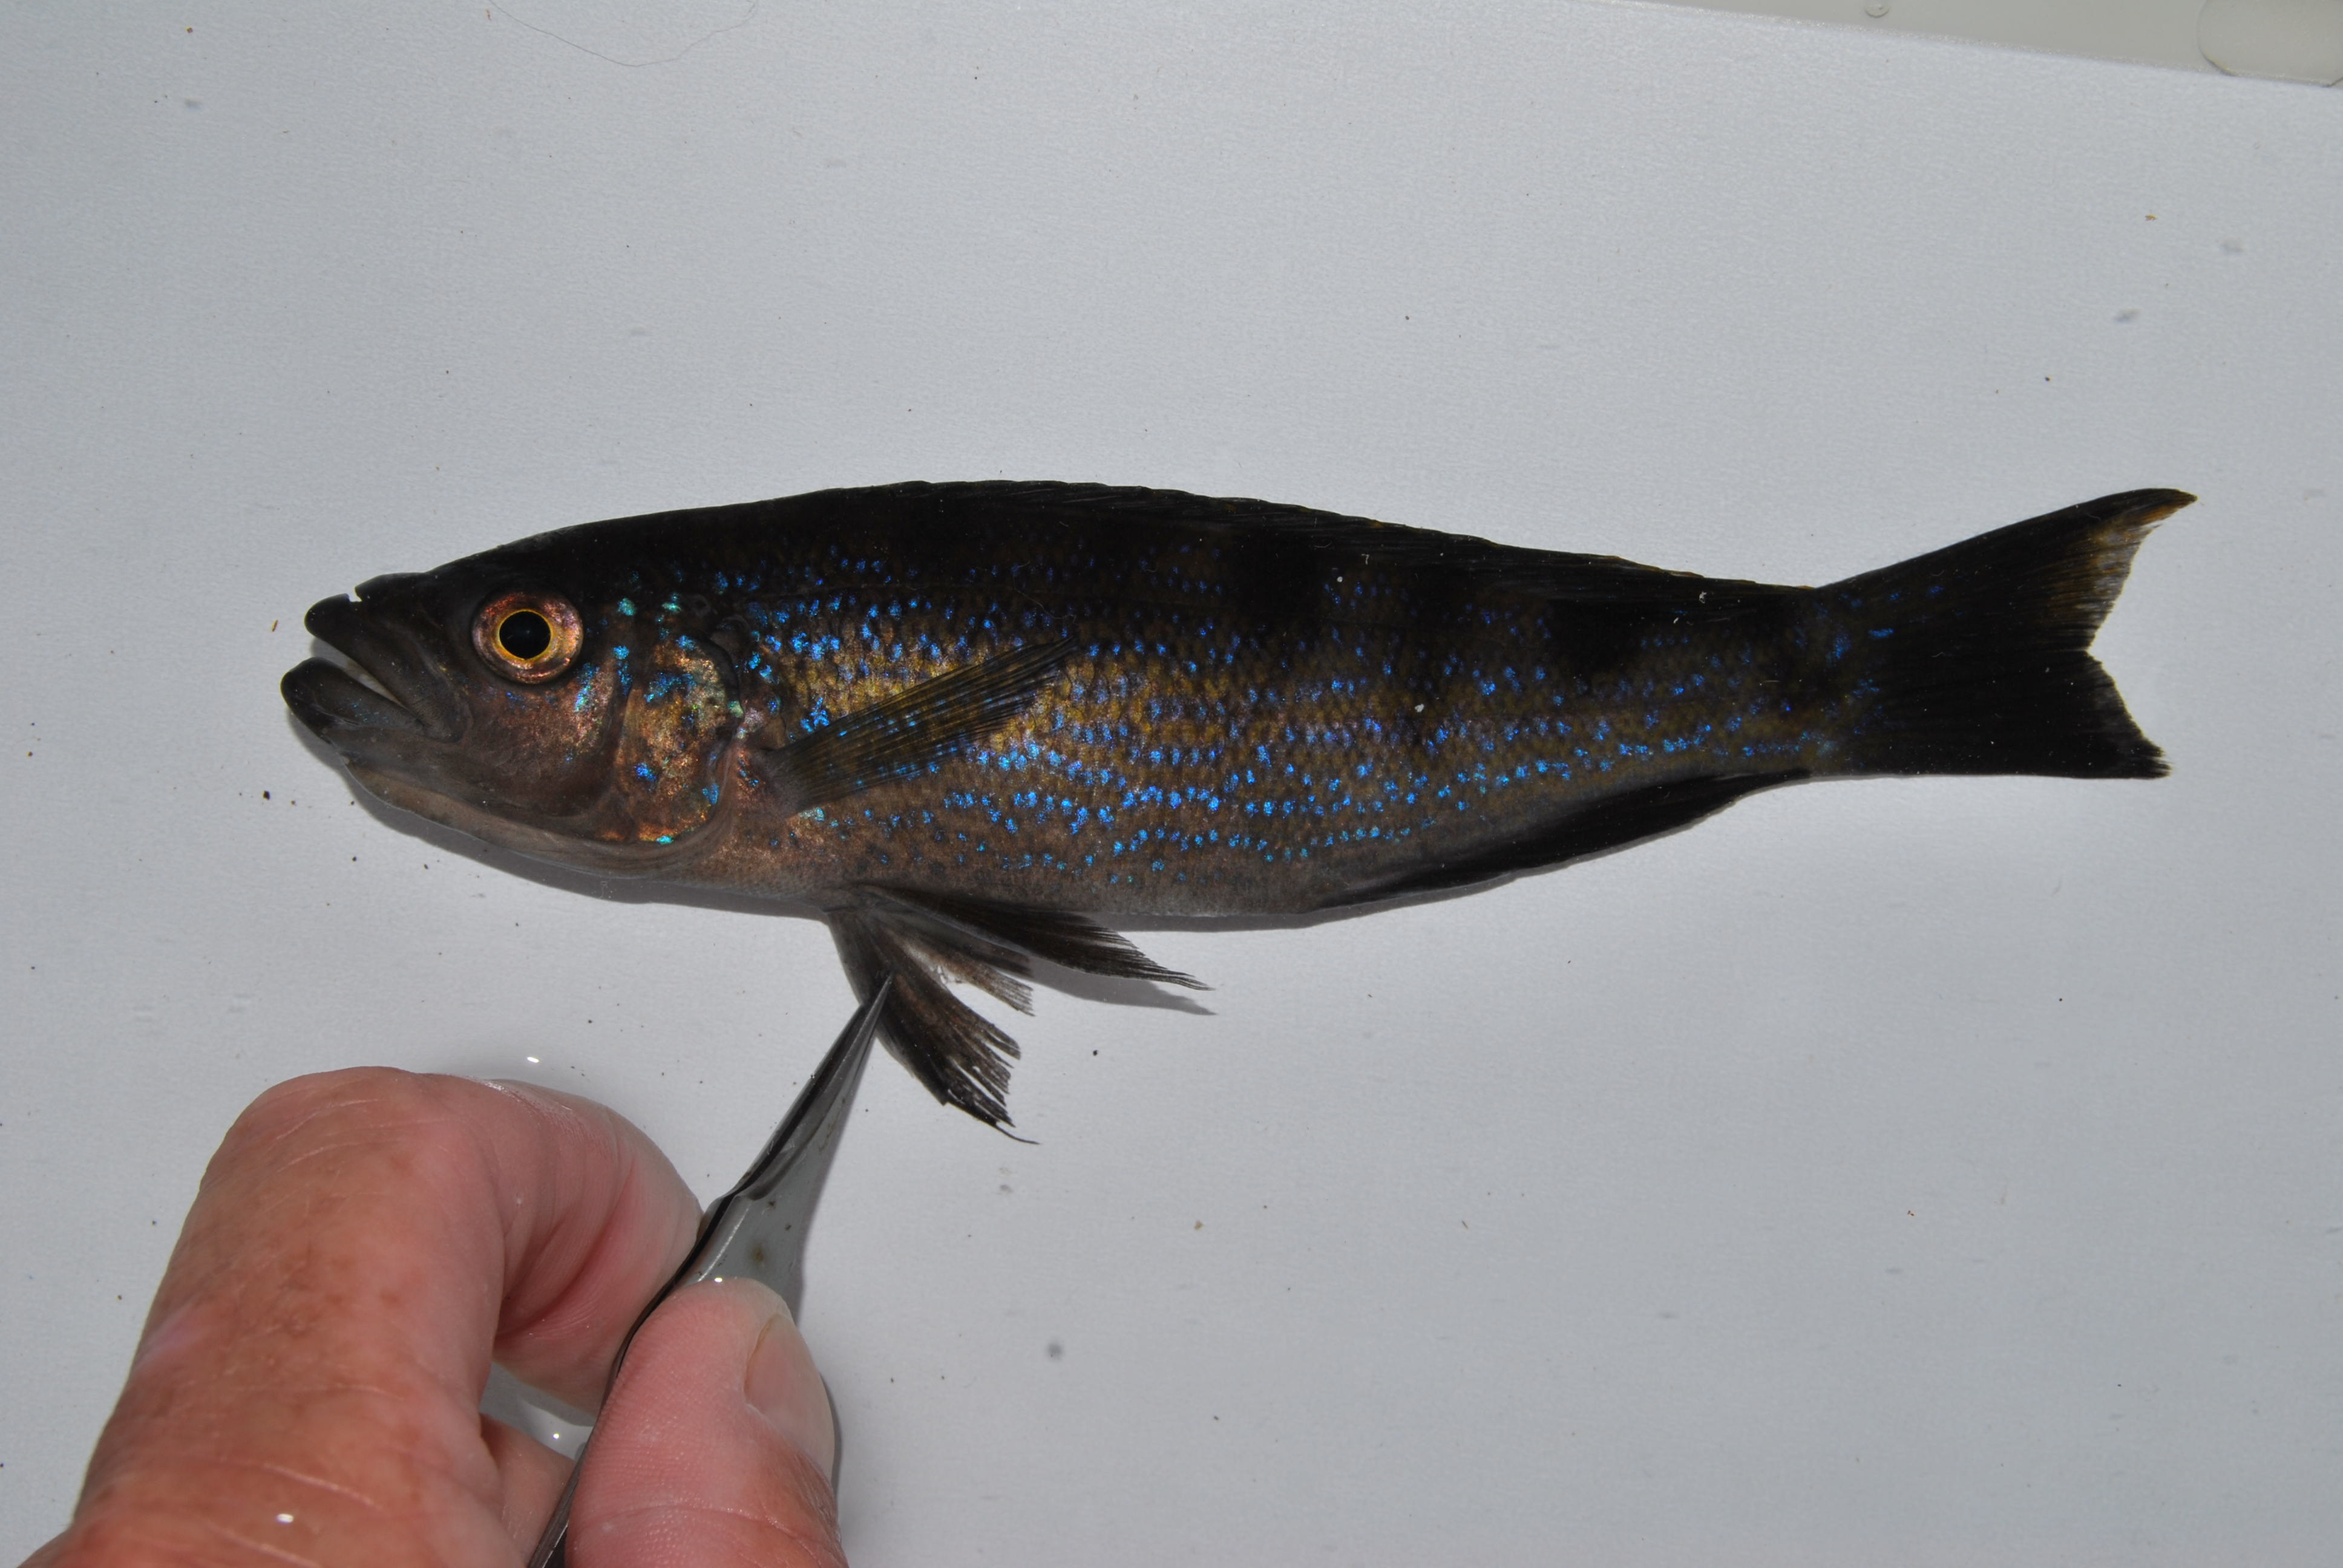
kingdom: Animalia
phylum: Chordata
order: Perciformes
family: Cichlidae
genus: Perissodus
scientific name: Perissodus microlepis
